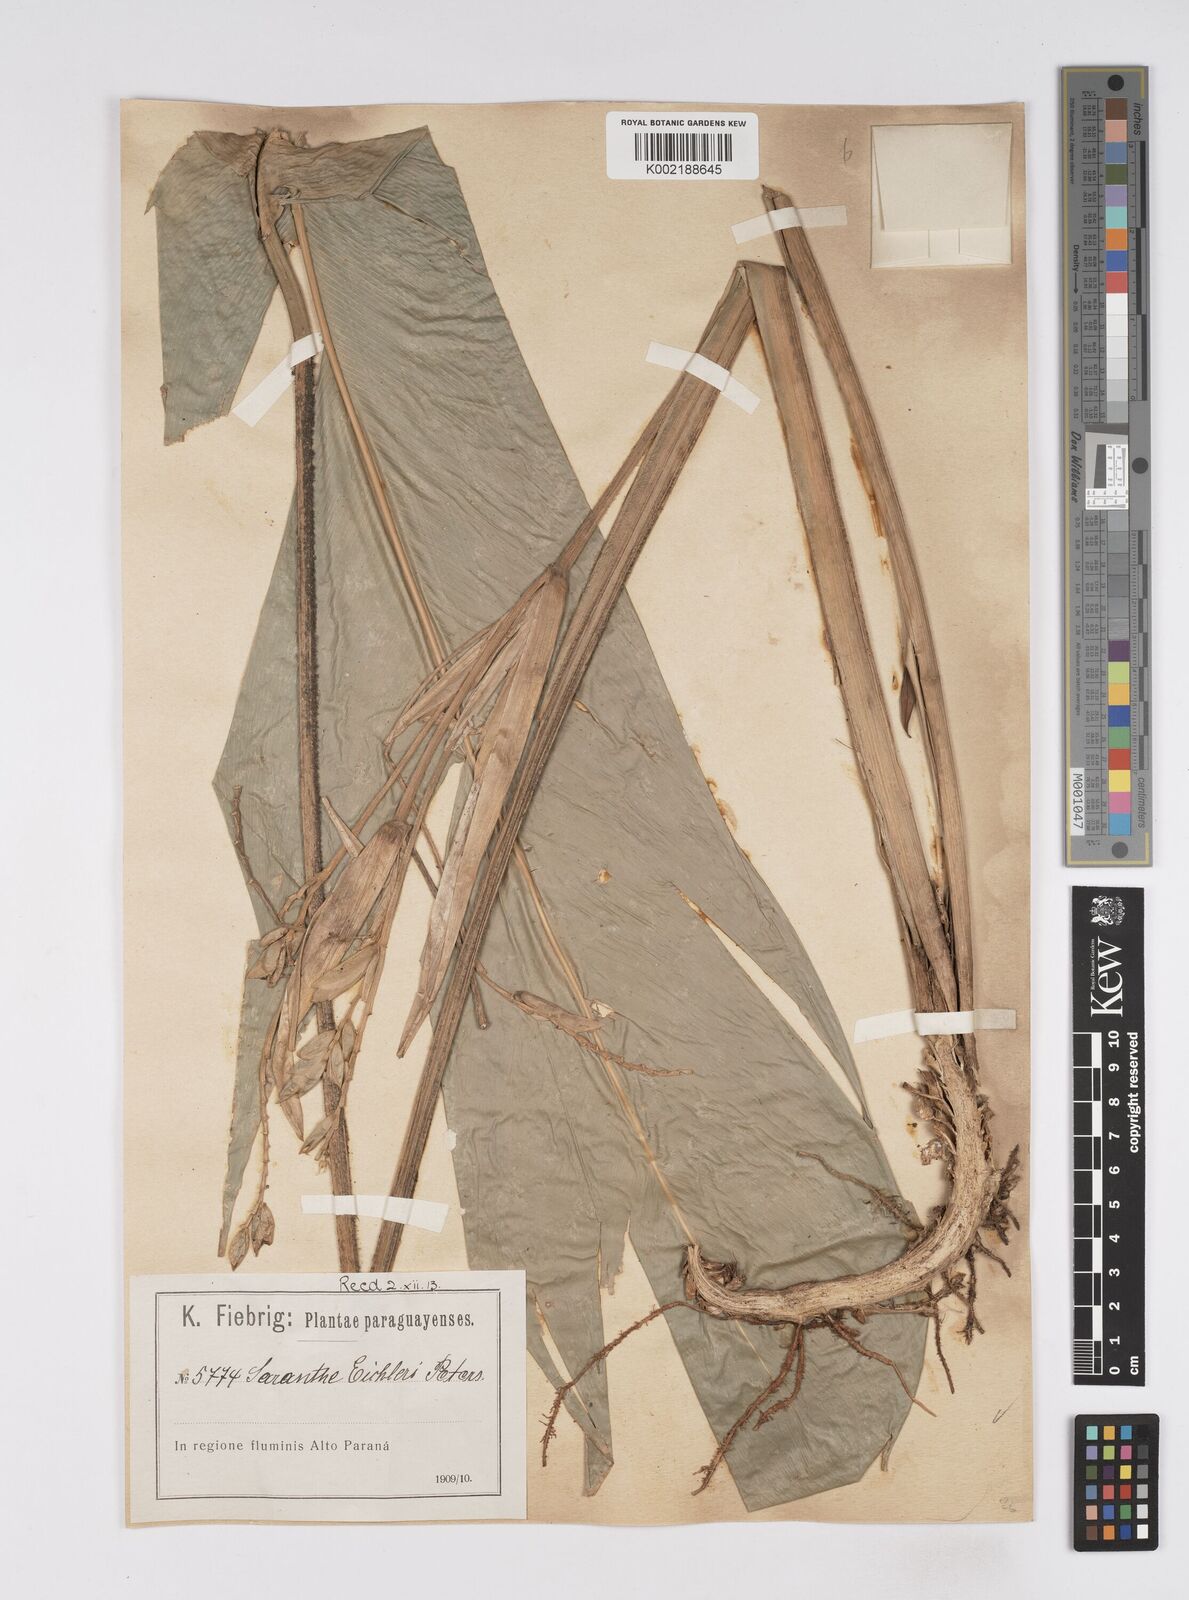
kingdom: Plantae
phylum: Tracheophyta
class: Liliopsida
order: Zingiberales
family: Marantaceae
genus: Saranthe
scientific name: Saranthe eichleri
